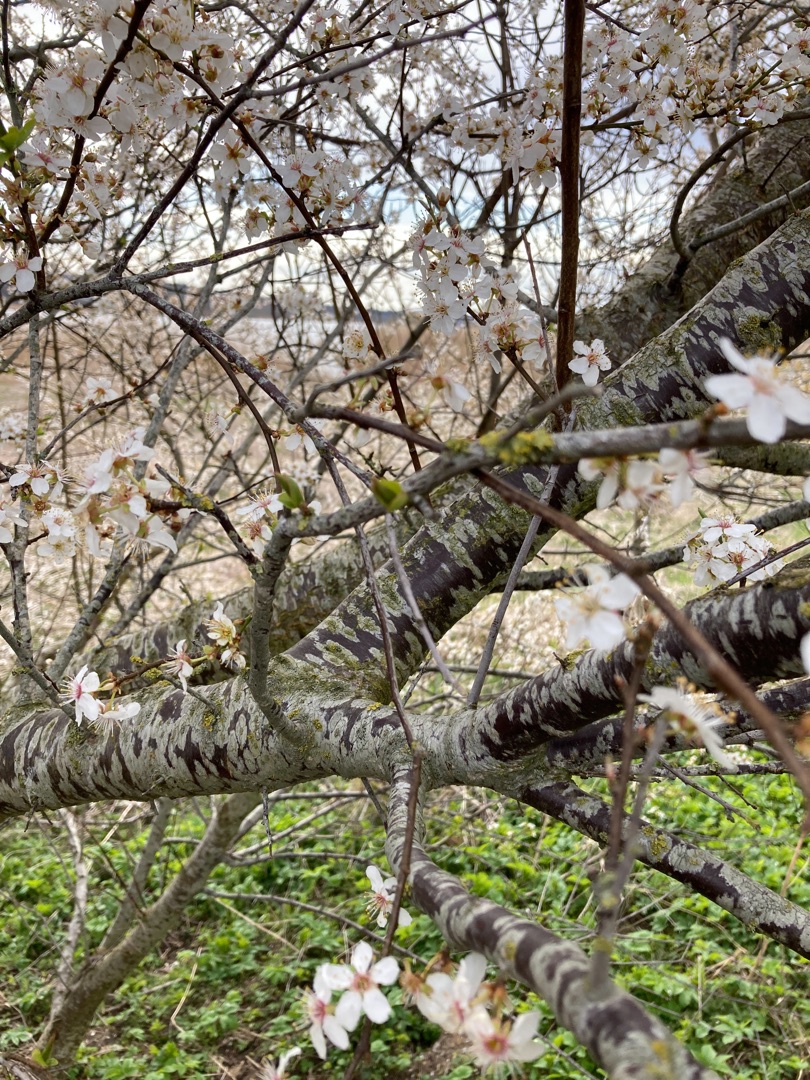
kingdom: Plantae
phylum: Tracheophyta
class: Magnoliopsida
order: Rosales
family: Rosaceae
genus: Prunus
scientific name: Prunus cerasifera
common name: Mirabel
